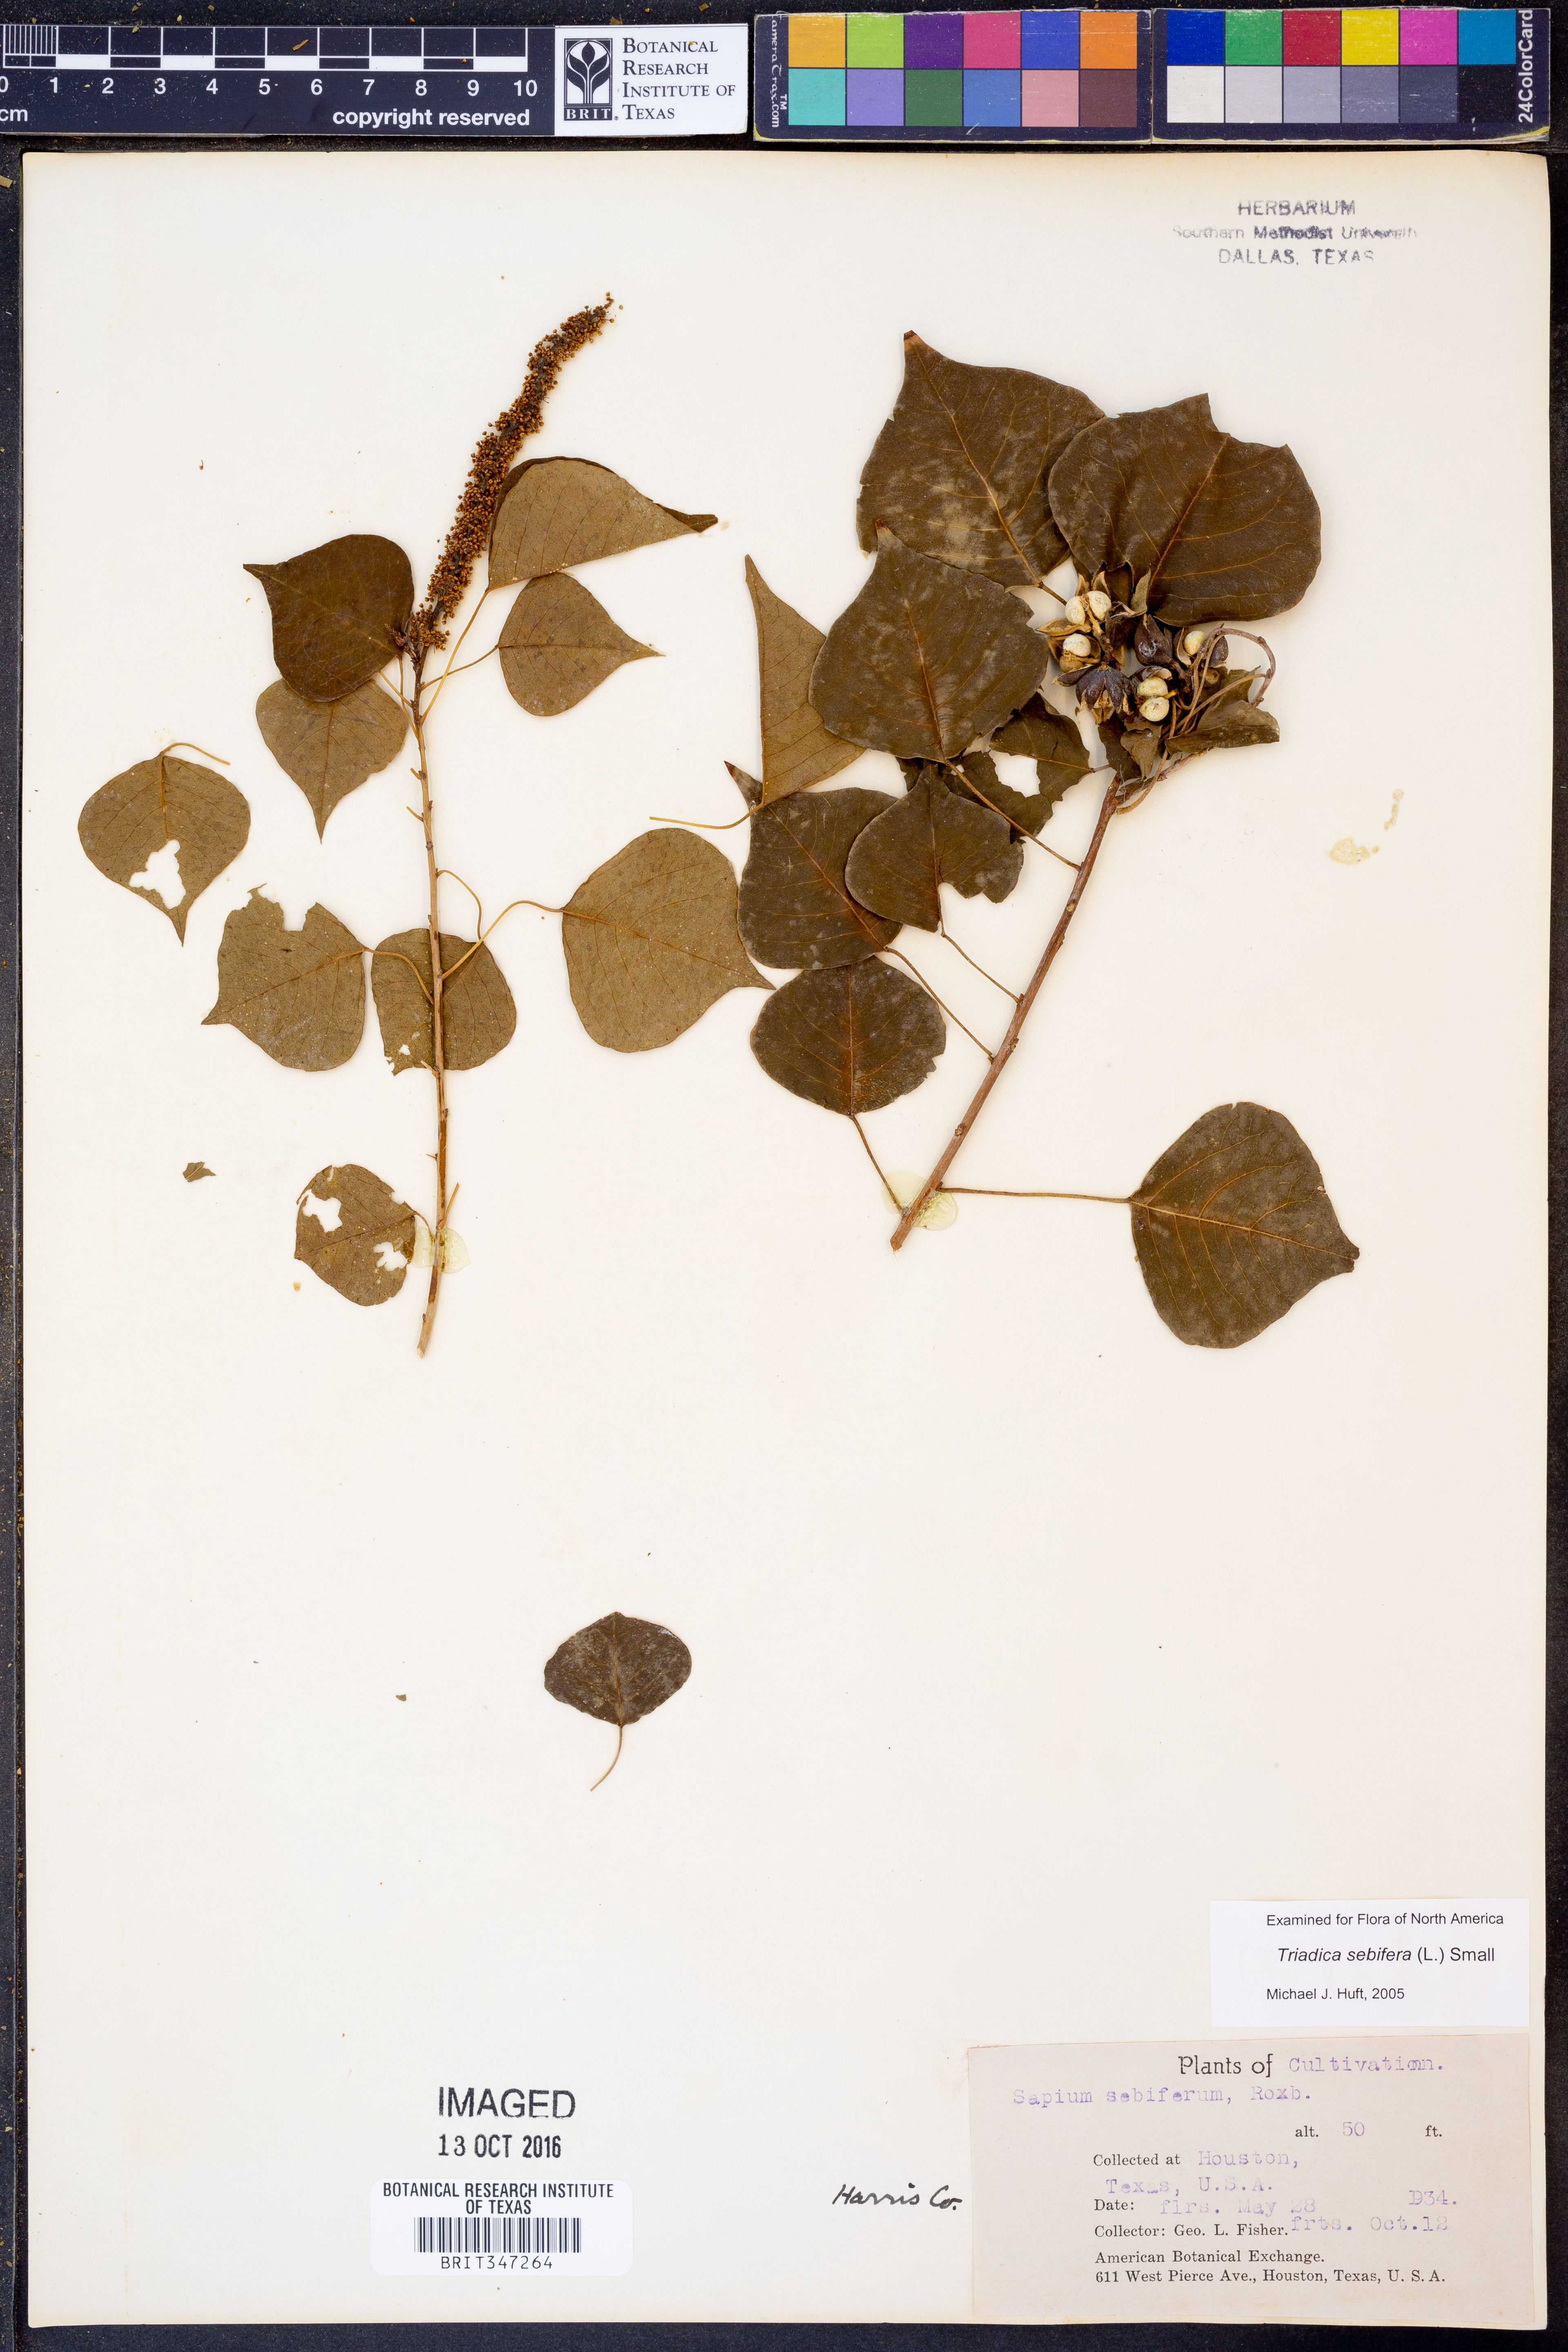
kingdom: Plantae
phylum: Tracheophyta
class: Magnoliopsida
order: Malpighiales
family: Euphorbiaceae
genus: Triadica
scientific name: Triadica sebifera
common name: Chinese tallow
